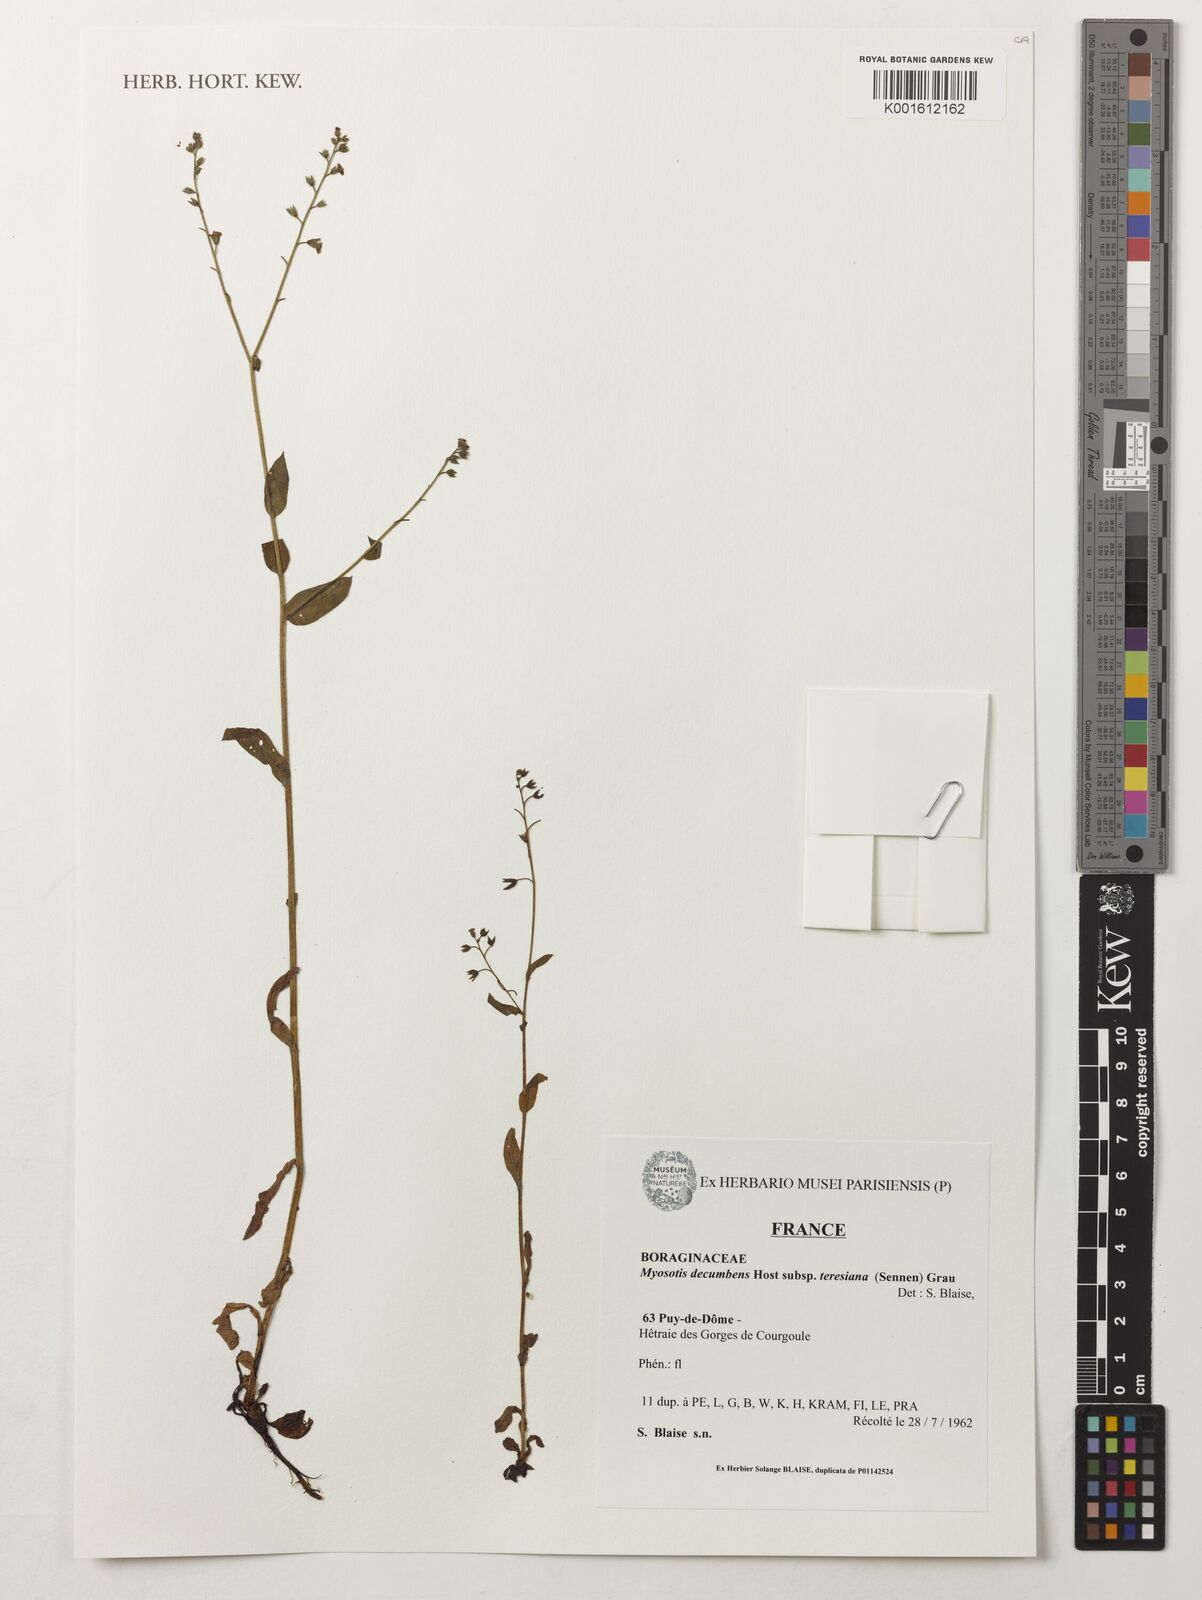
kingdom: Plantae
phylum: Tracheophyta
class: Magnoliopsida
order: Boraginales
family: Boraginaceae
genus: Myosotis
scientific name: Myosotis decumbens
